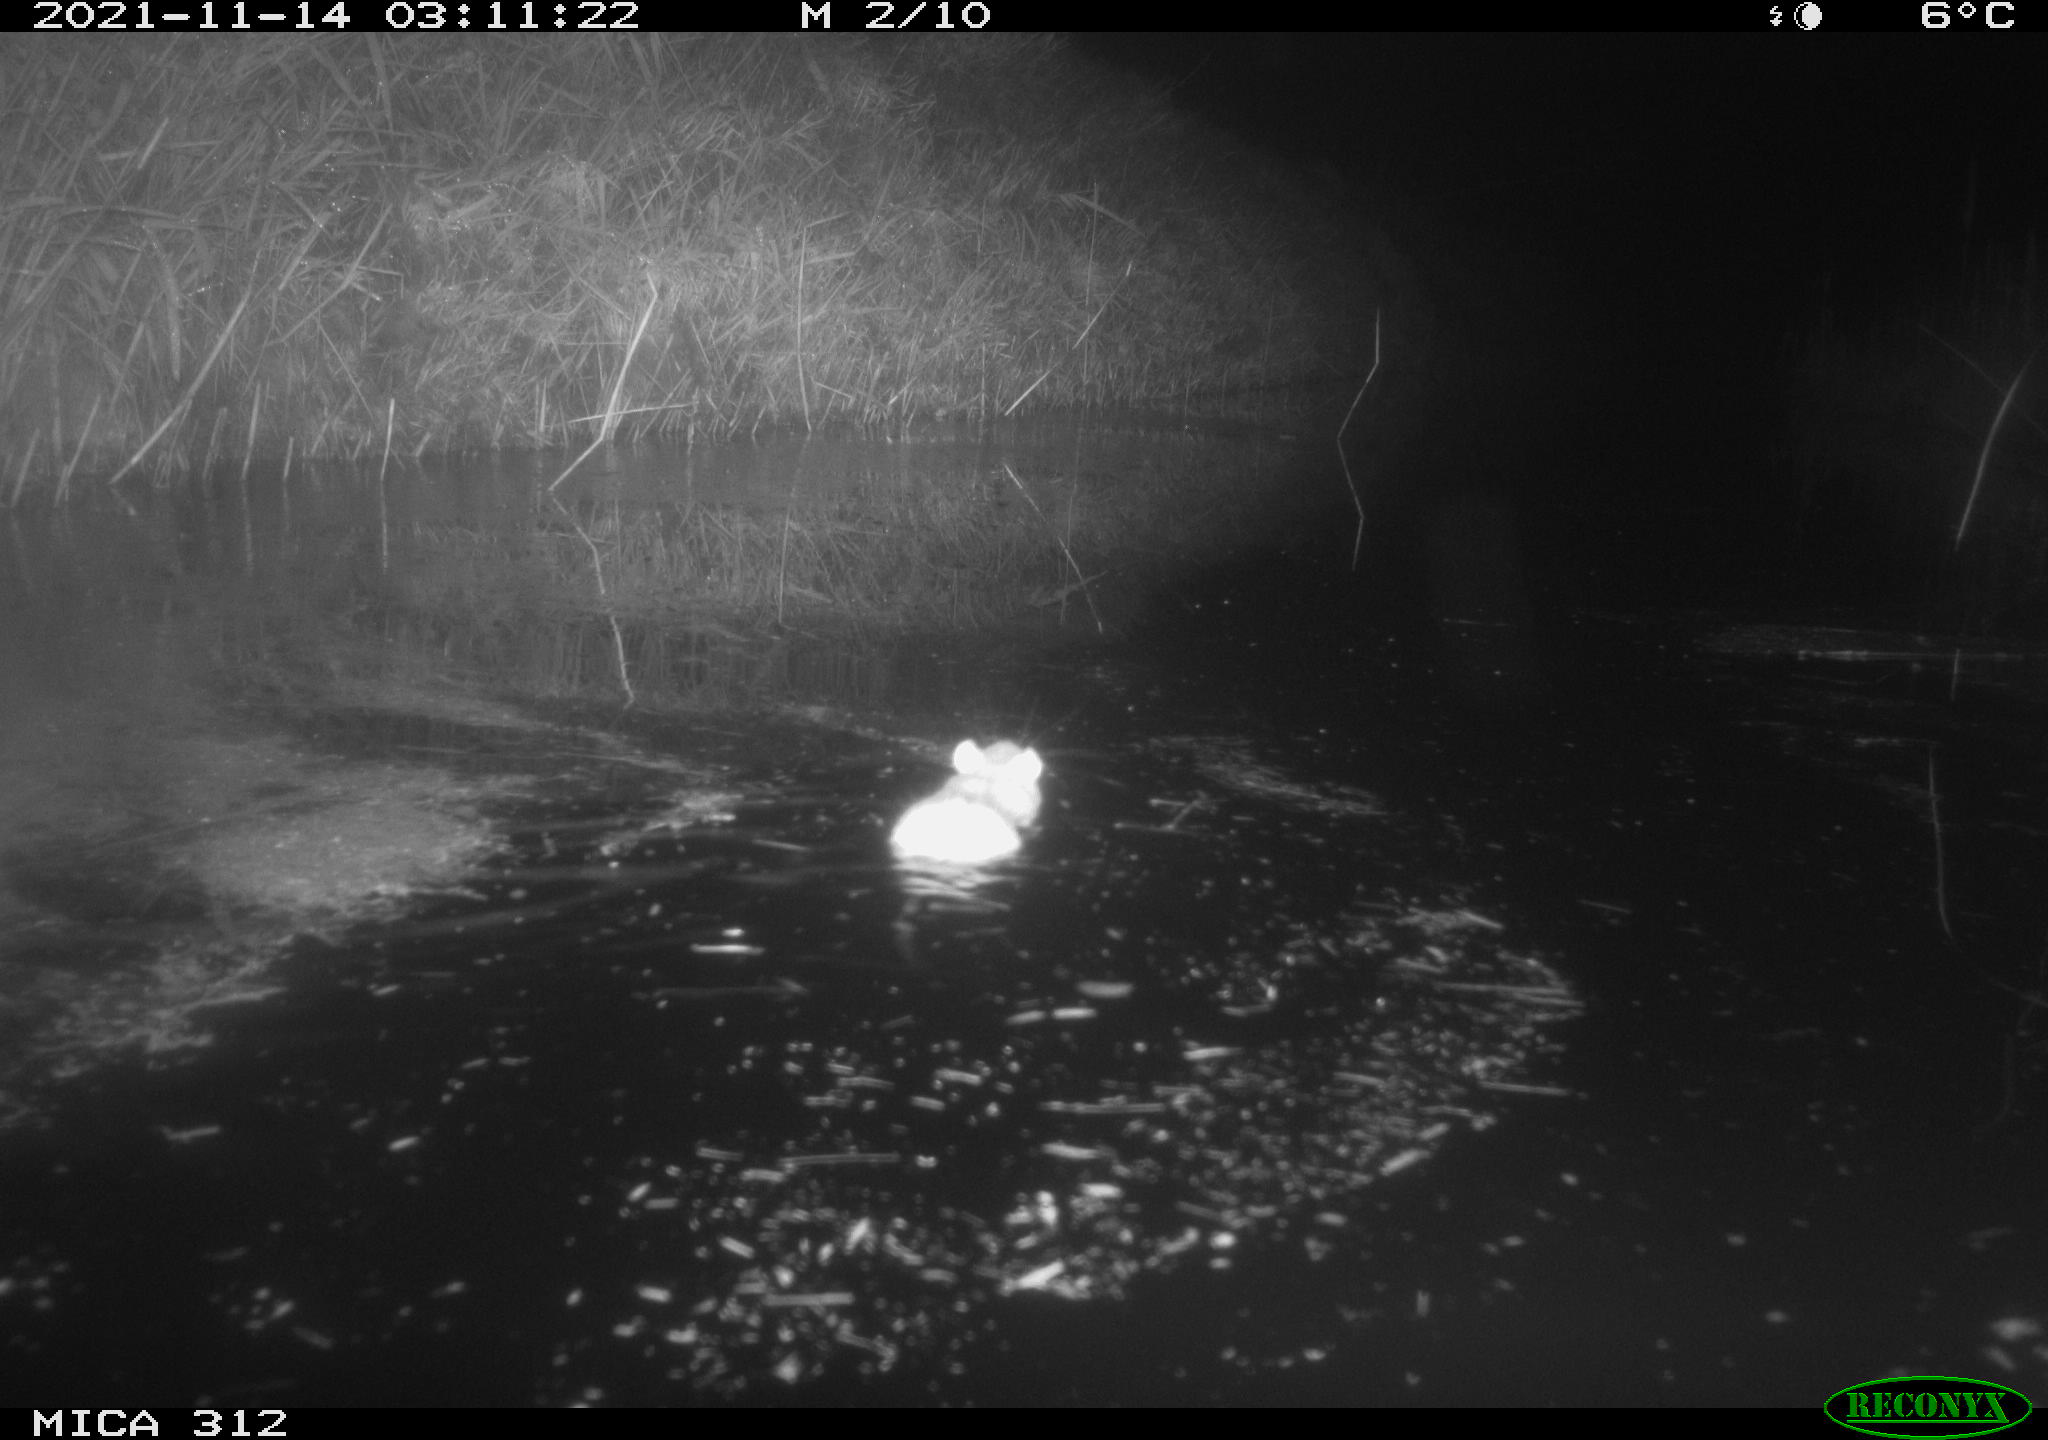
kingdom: Animalia
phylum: Chordata
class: Mammalia
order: Rodentia
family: Muridae
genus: Rattus
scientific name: Rattus norvegicus
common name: Brown rat
